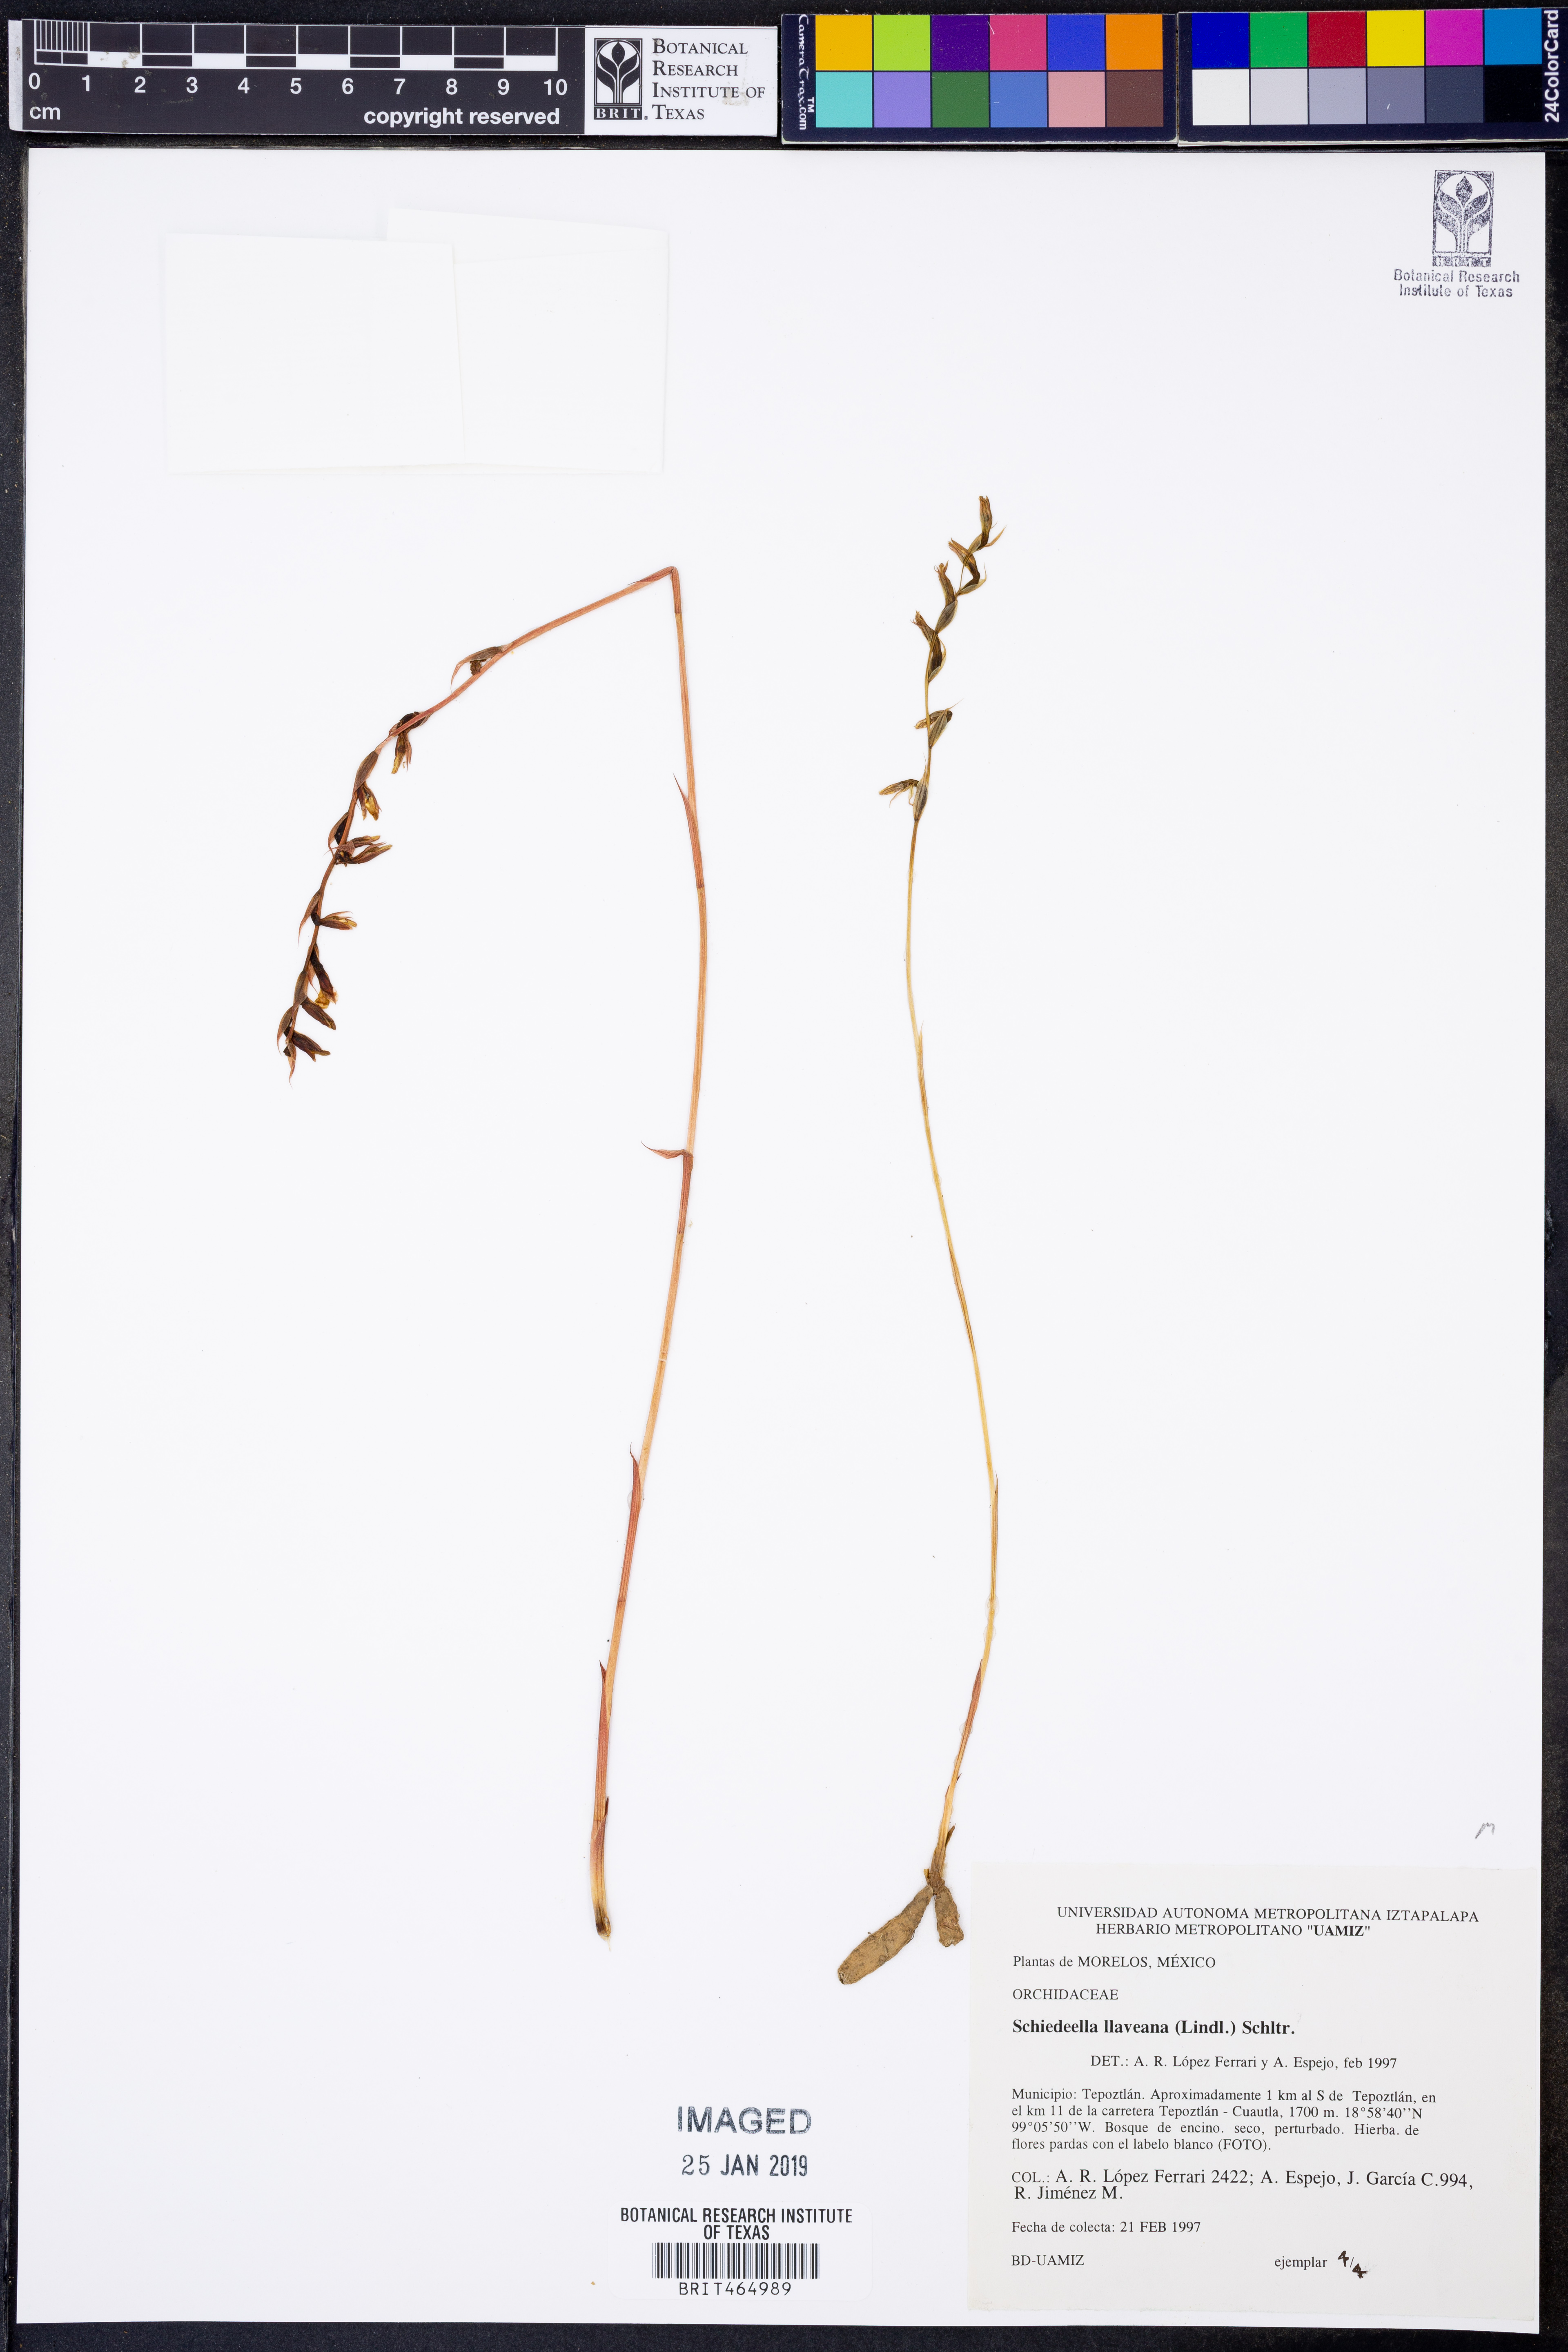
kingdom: Plantae
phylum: Tracheophyta
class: Liliopsida
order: Asparagales
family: Orchidaceae
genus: Greenwoodiella
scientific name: Greenwoodiella micrantha
